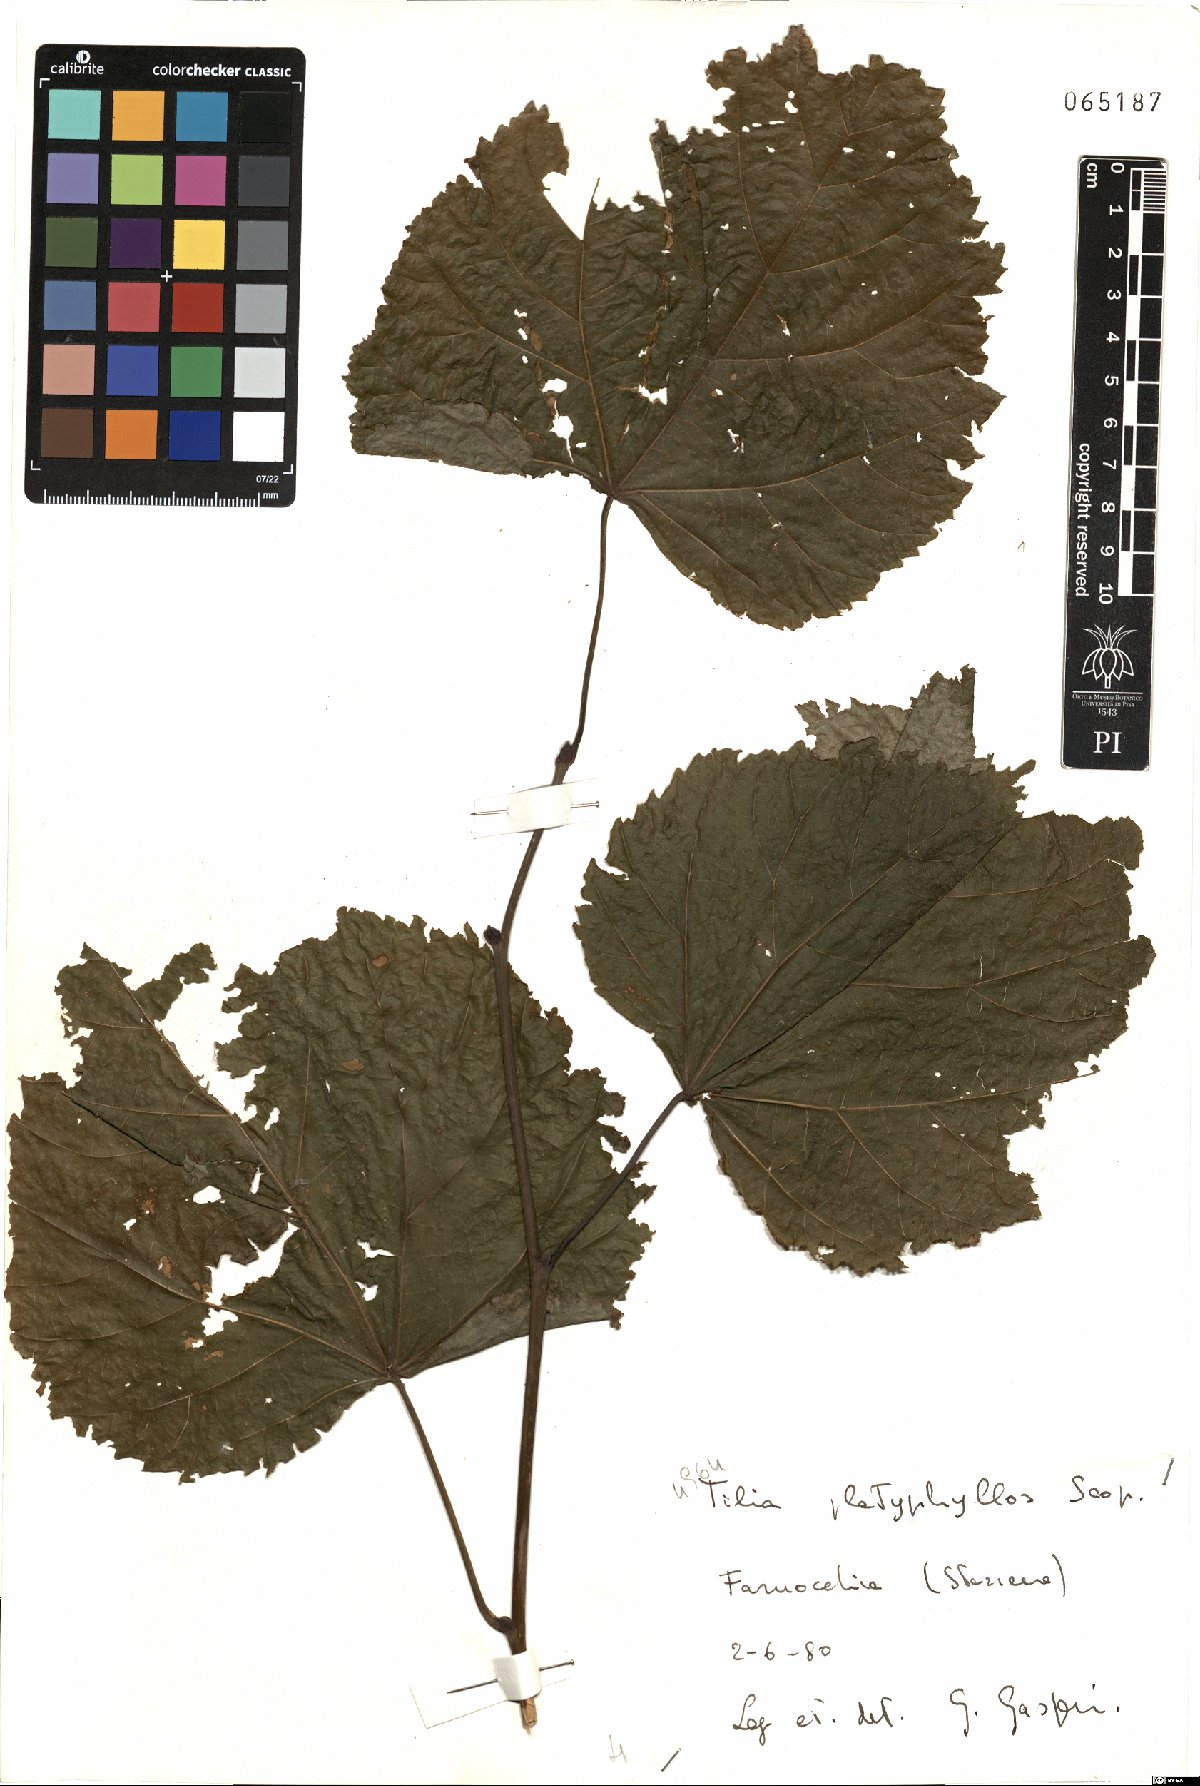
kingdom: Plantae
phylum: Tracheophyta
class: Magnoliopsida
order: Malvales
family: Malvaceae
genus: Tilia
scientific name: Tilia platyphyllos
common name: Large-leaved lime
